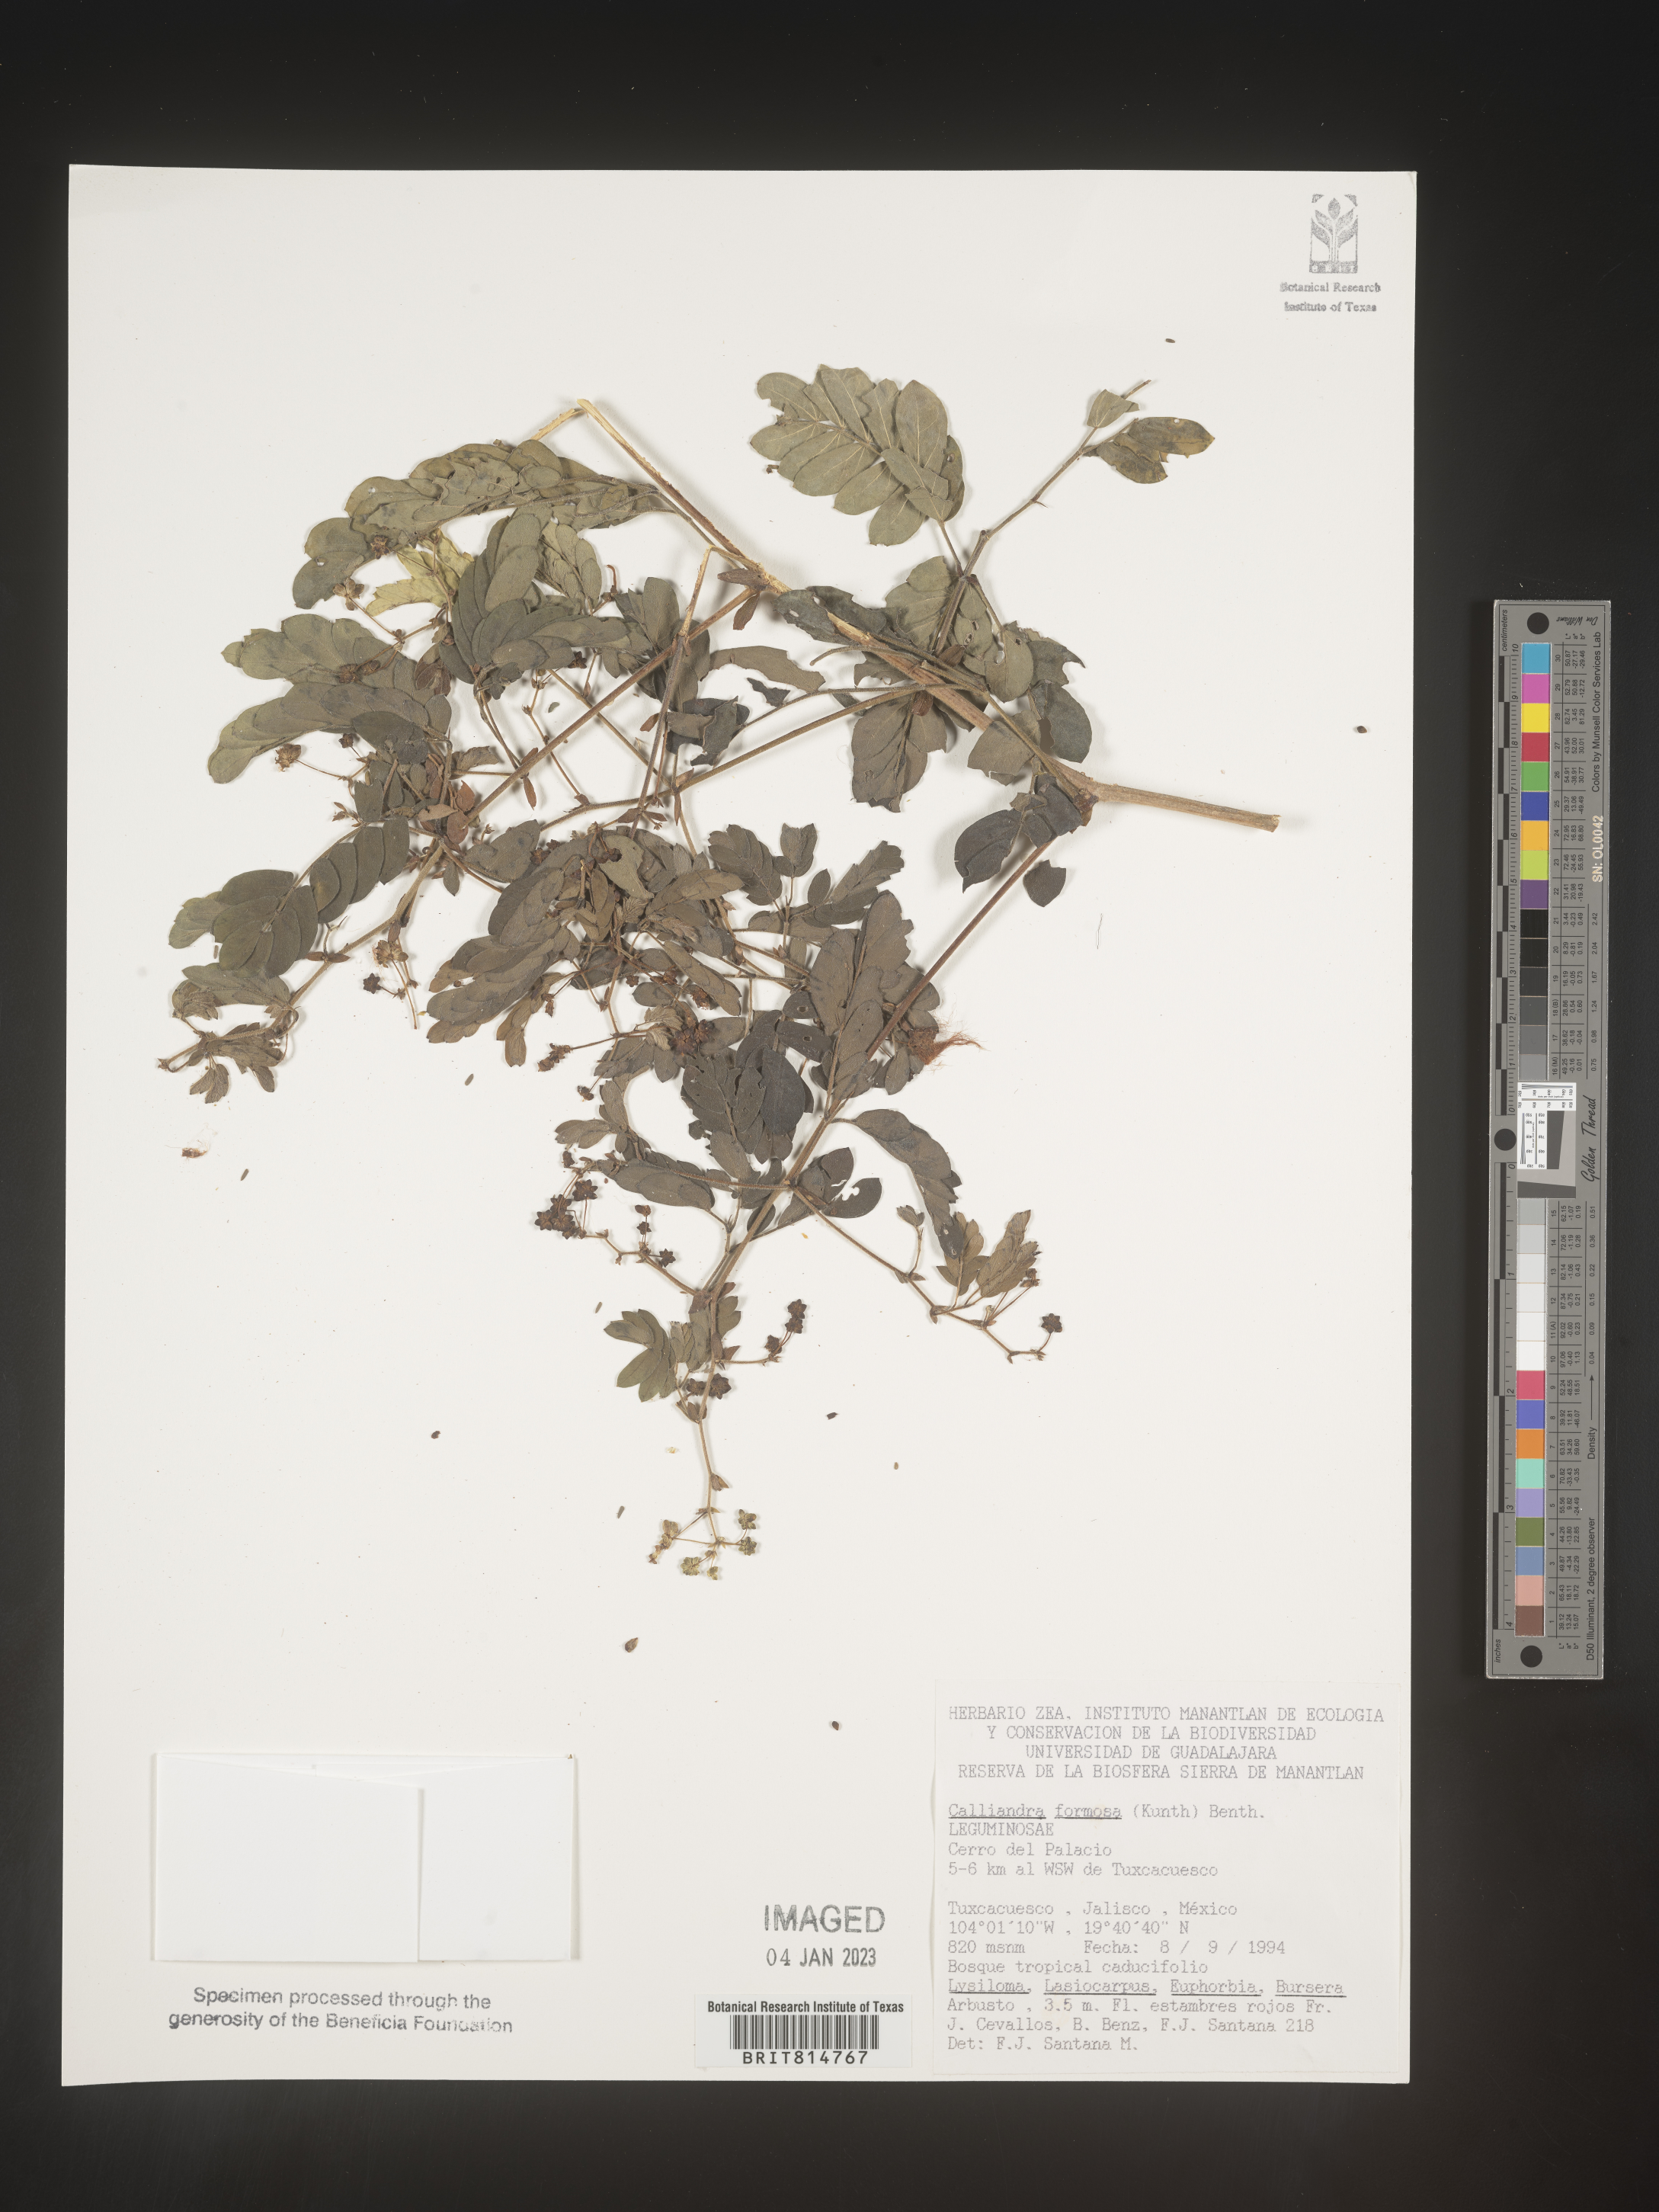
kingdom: Plantae
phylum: Tracheophyta
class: Magnoliopsida
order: Fabales
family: Fabaceae
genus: Calliandra
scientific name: Calliandra
